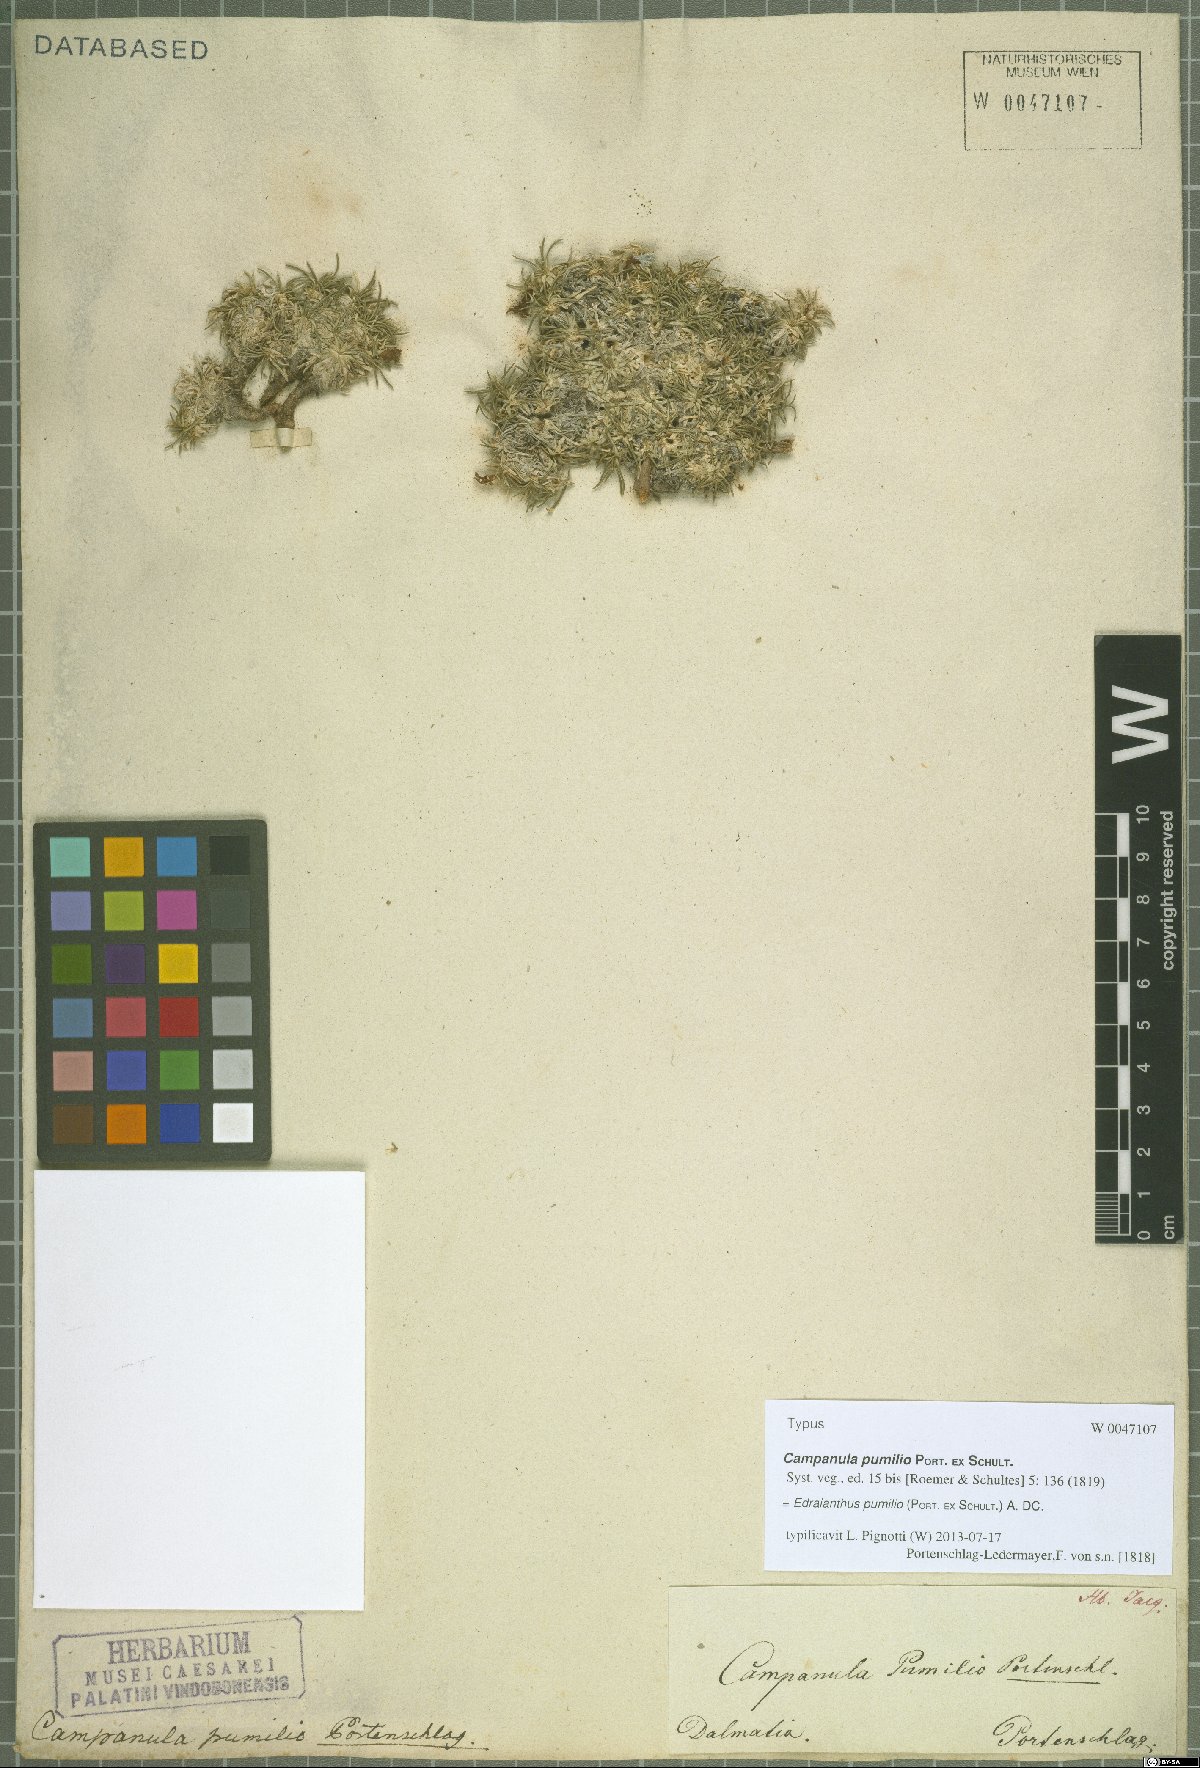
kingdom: Plantae
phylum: Tracheophyta
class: Magnoliopsida
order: Asterales
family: Campanulaceae
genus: Edraianthus
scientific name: Edraianthus pumilio
